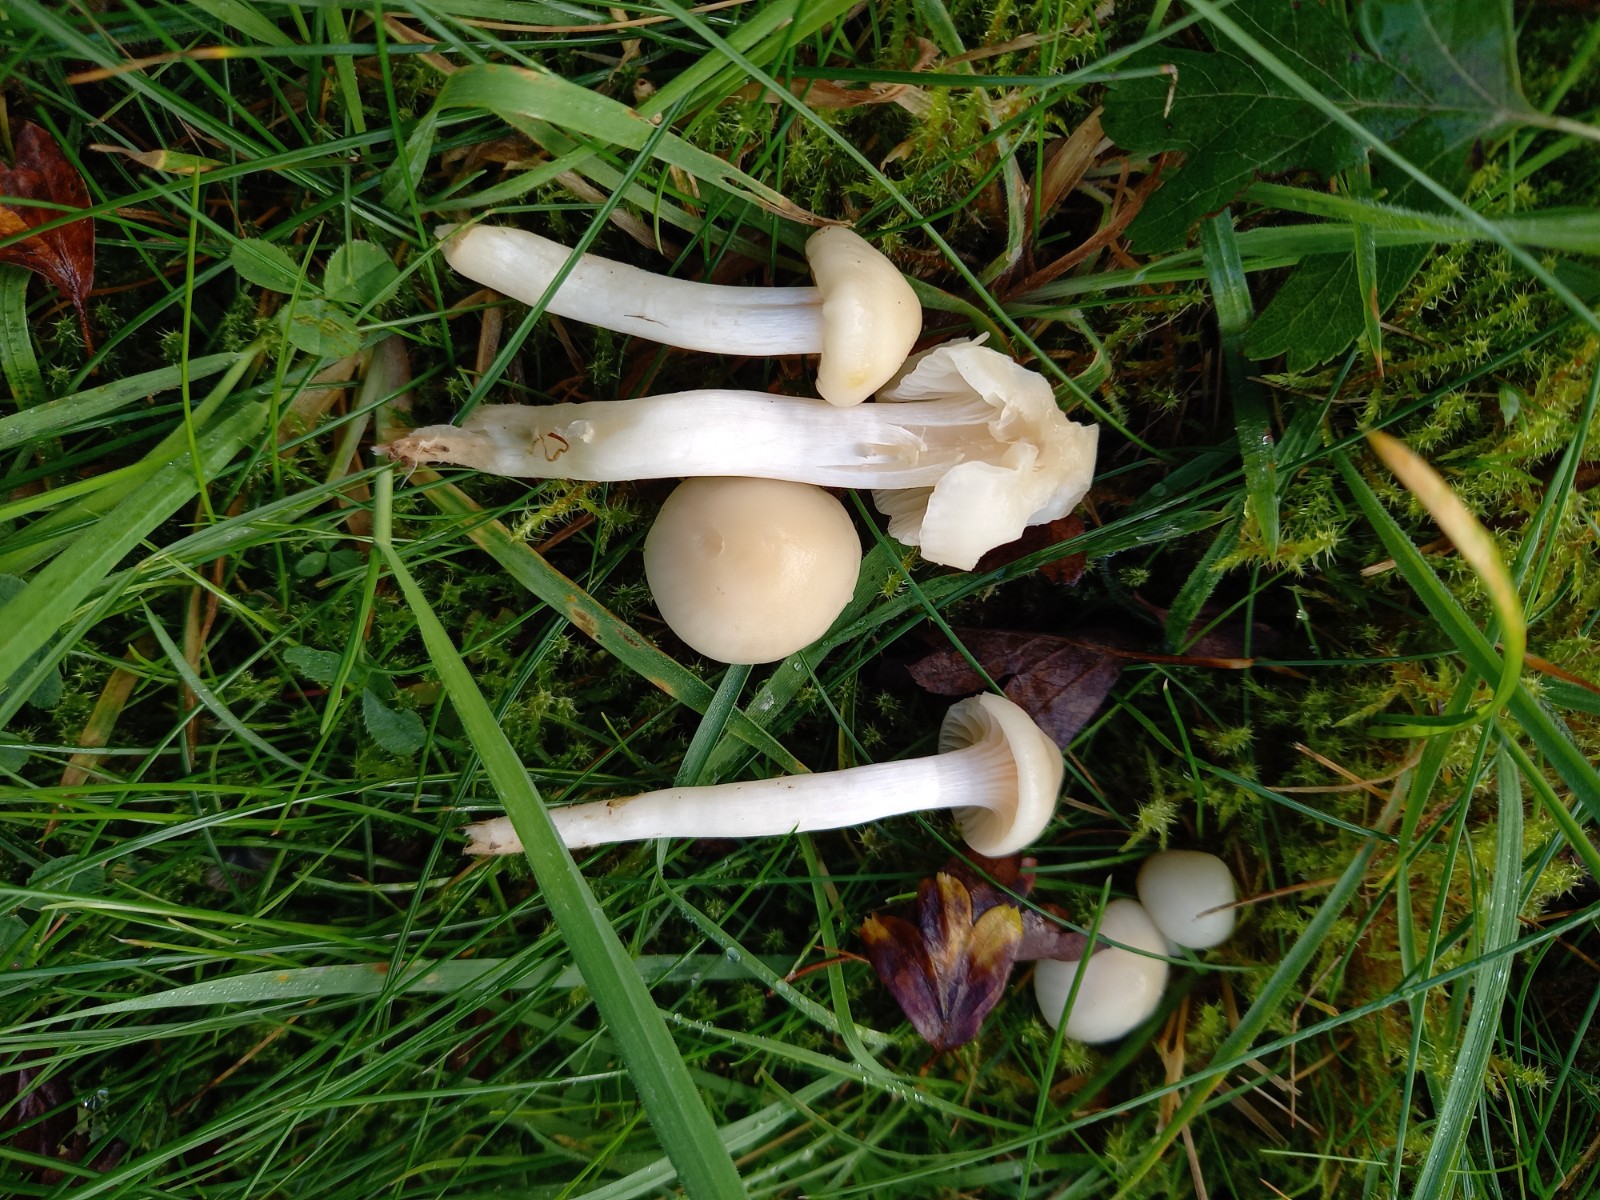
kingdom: Fungi
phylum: Basidiomycota
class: Agaricomycetes
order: Agaricales
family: Hygrophoraceae
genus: Cuphophyllus
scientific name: Cuphophyllus
